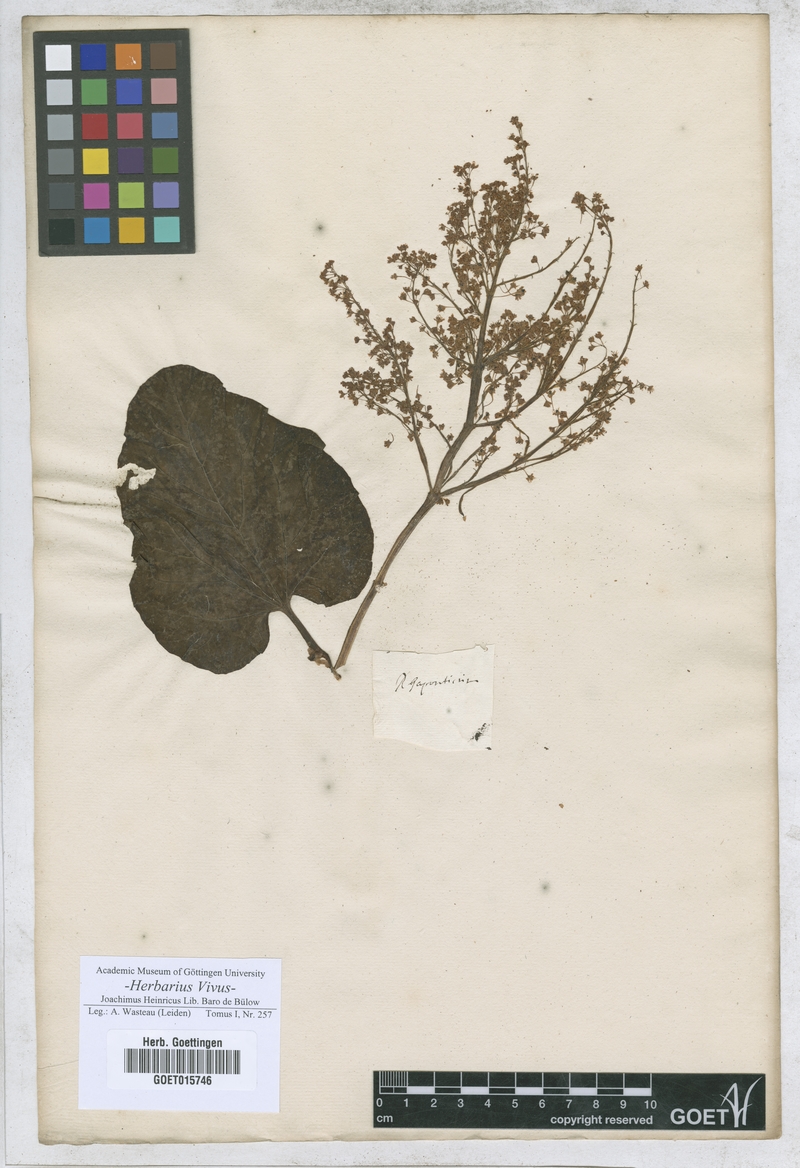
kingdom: Plantae
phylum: Tracheophyta
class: Magnoliopsida
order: Caryophyllales
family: Polygonaceae
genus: Lapathum
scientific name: Lapathum
